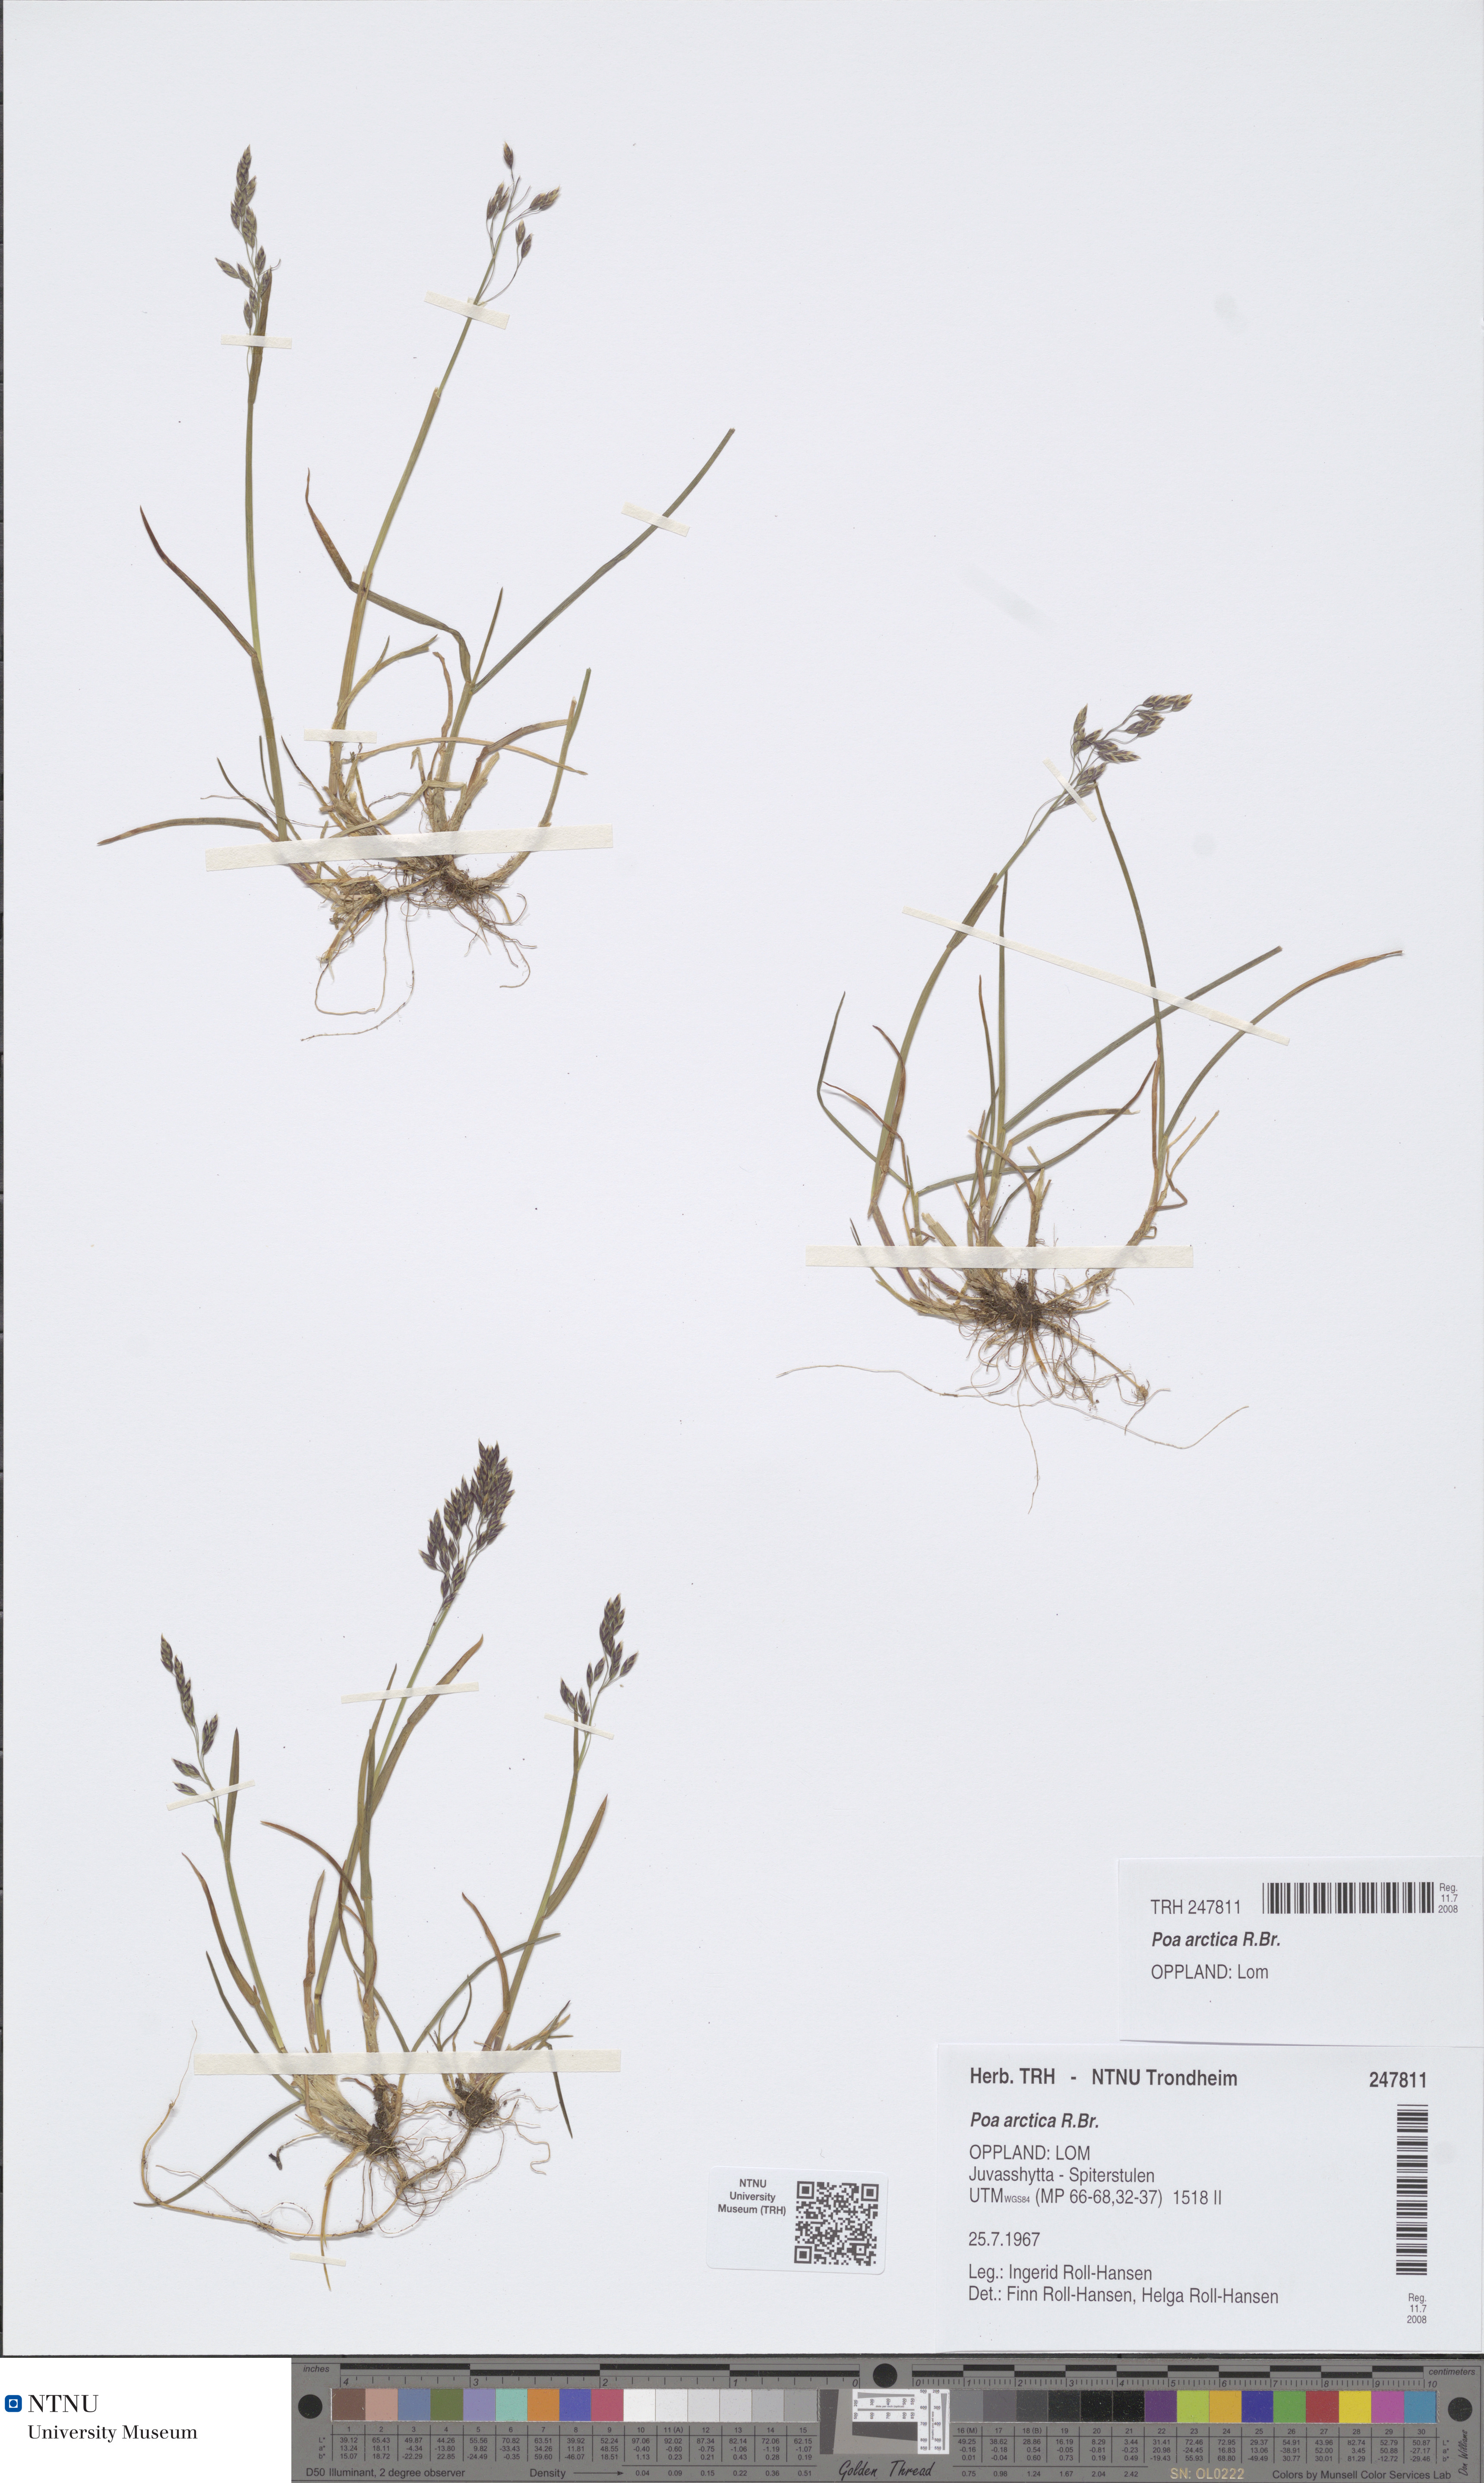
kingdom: Plantae
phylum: Tracheophyta
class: Liliopsida
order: Poales
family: Poaceae
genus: Poa
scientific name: Poa arctica
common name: Arctic bluegrass
